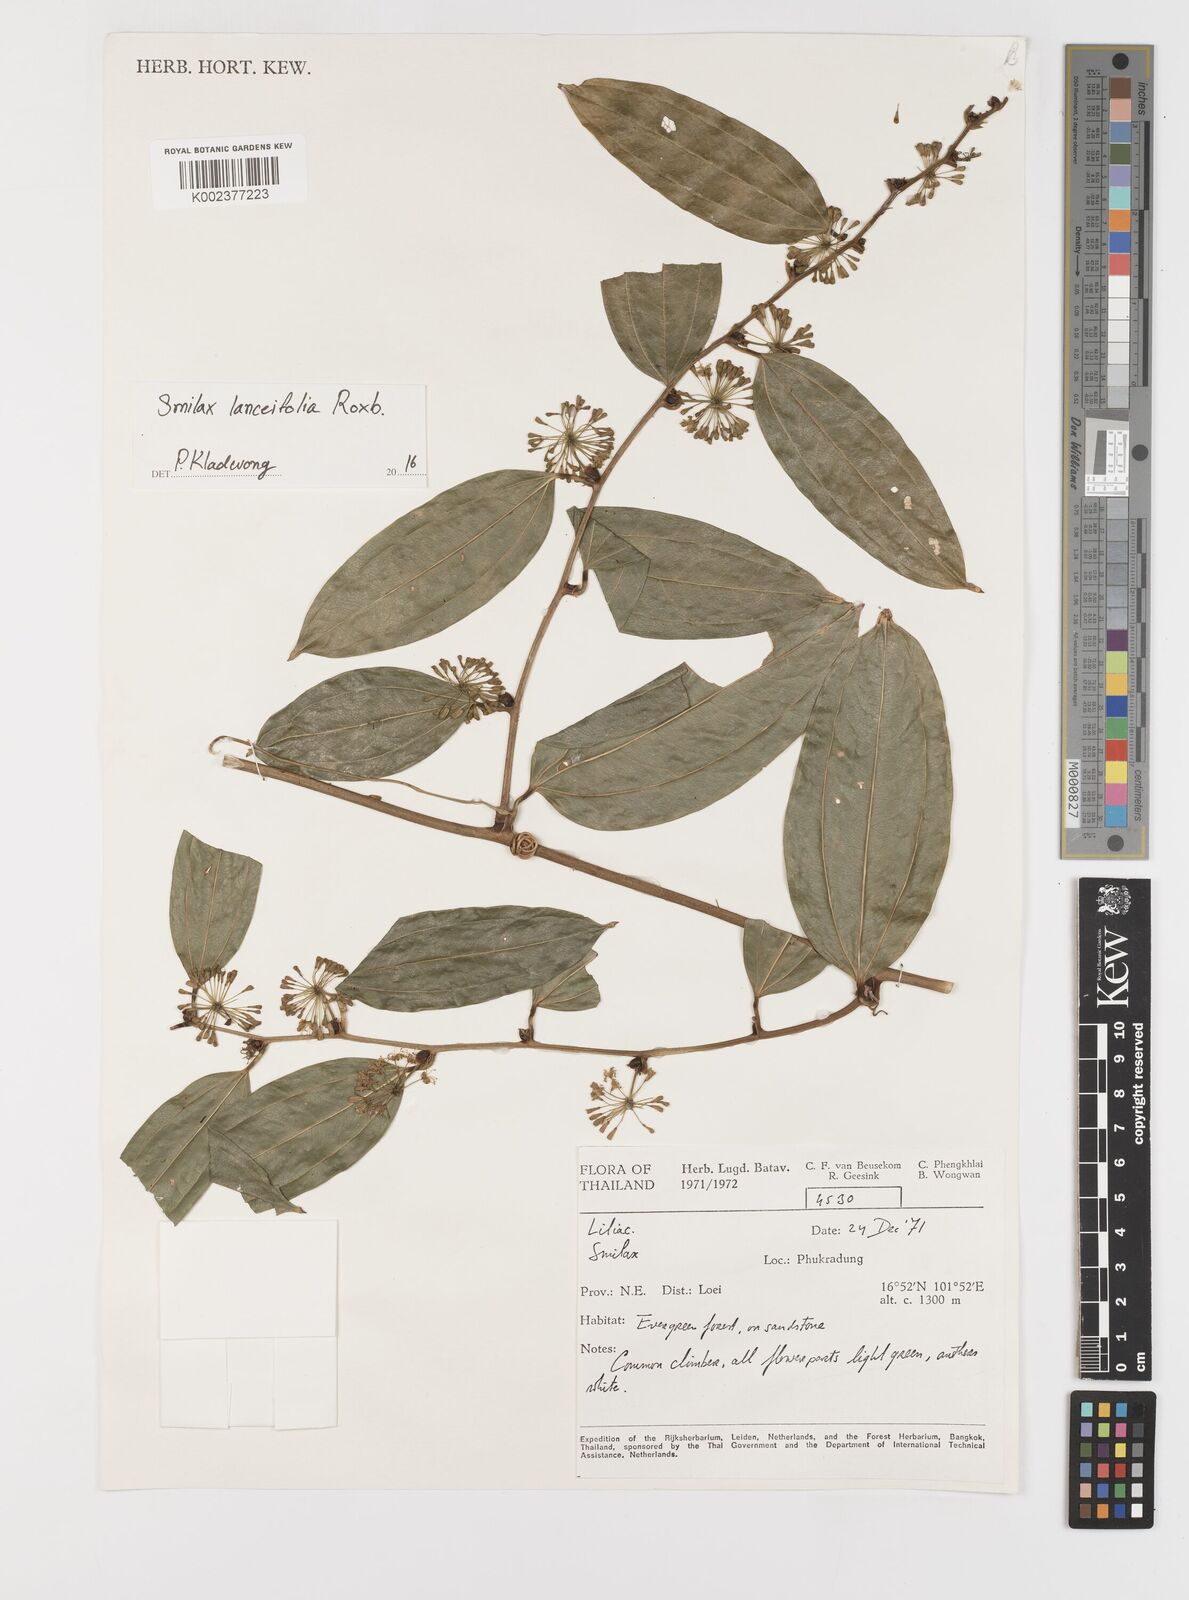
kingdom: Plantae
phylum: Tracheophyta
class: Liliopsida
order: Liliales
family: Smilacaceae
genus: Smilax
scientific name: Smilax lanceifolia
